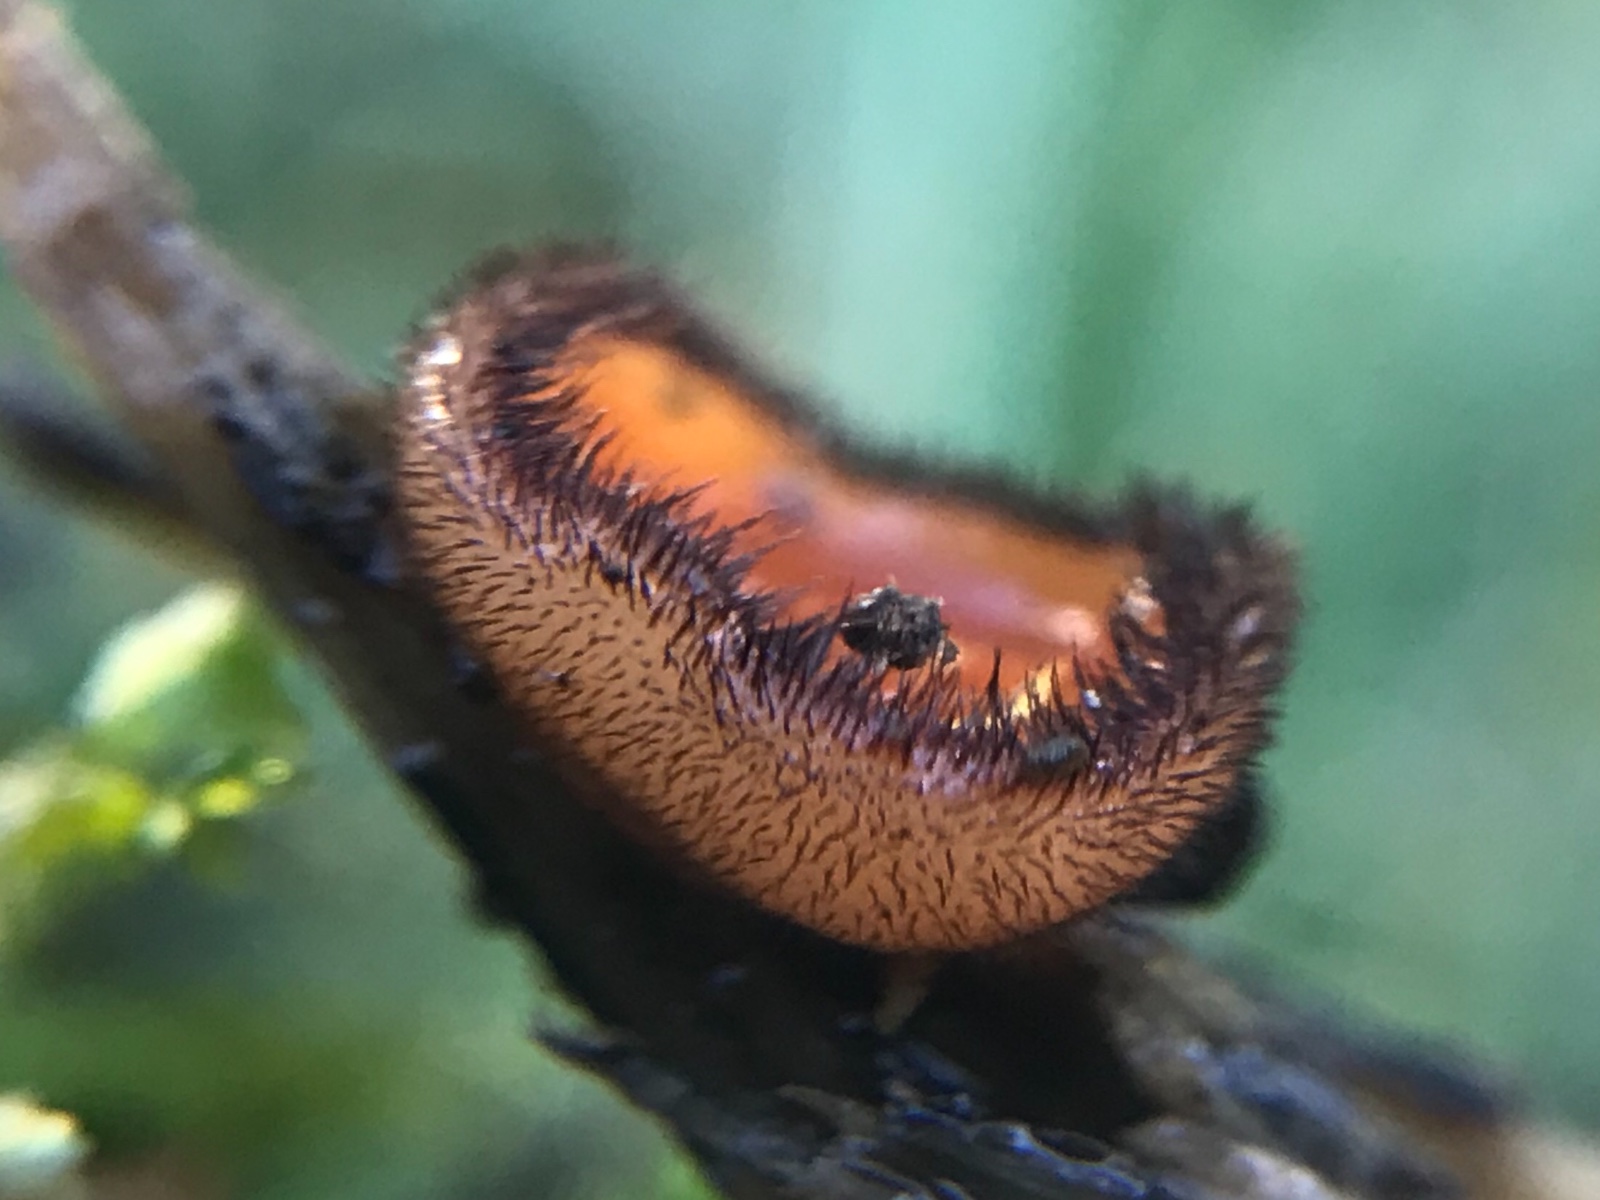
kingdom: Fungi
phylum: Ascomycota
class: Pezizomycetes
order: Pezizales
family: Pyronemataceae
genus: Scutellinia
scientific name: Scutellinia scutellata
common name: frynset skjoldbæger
